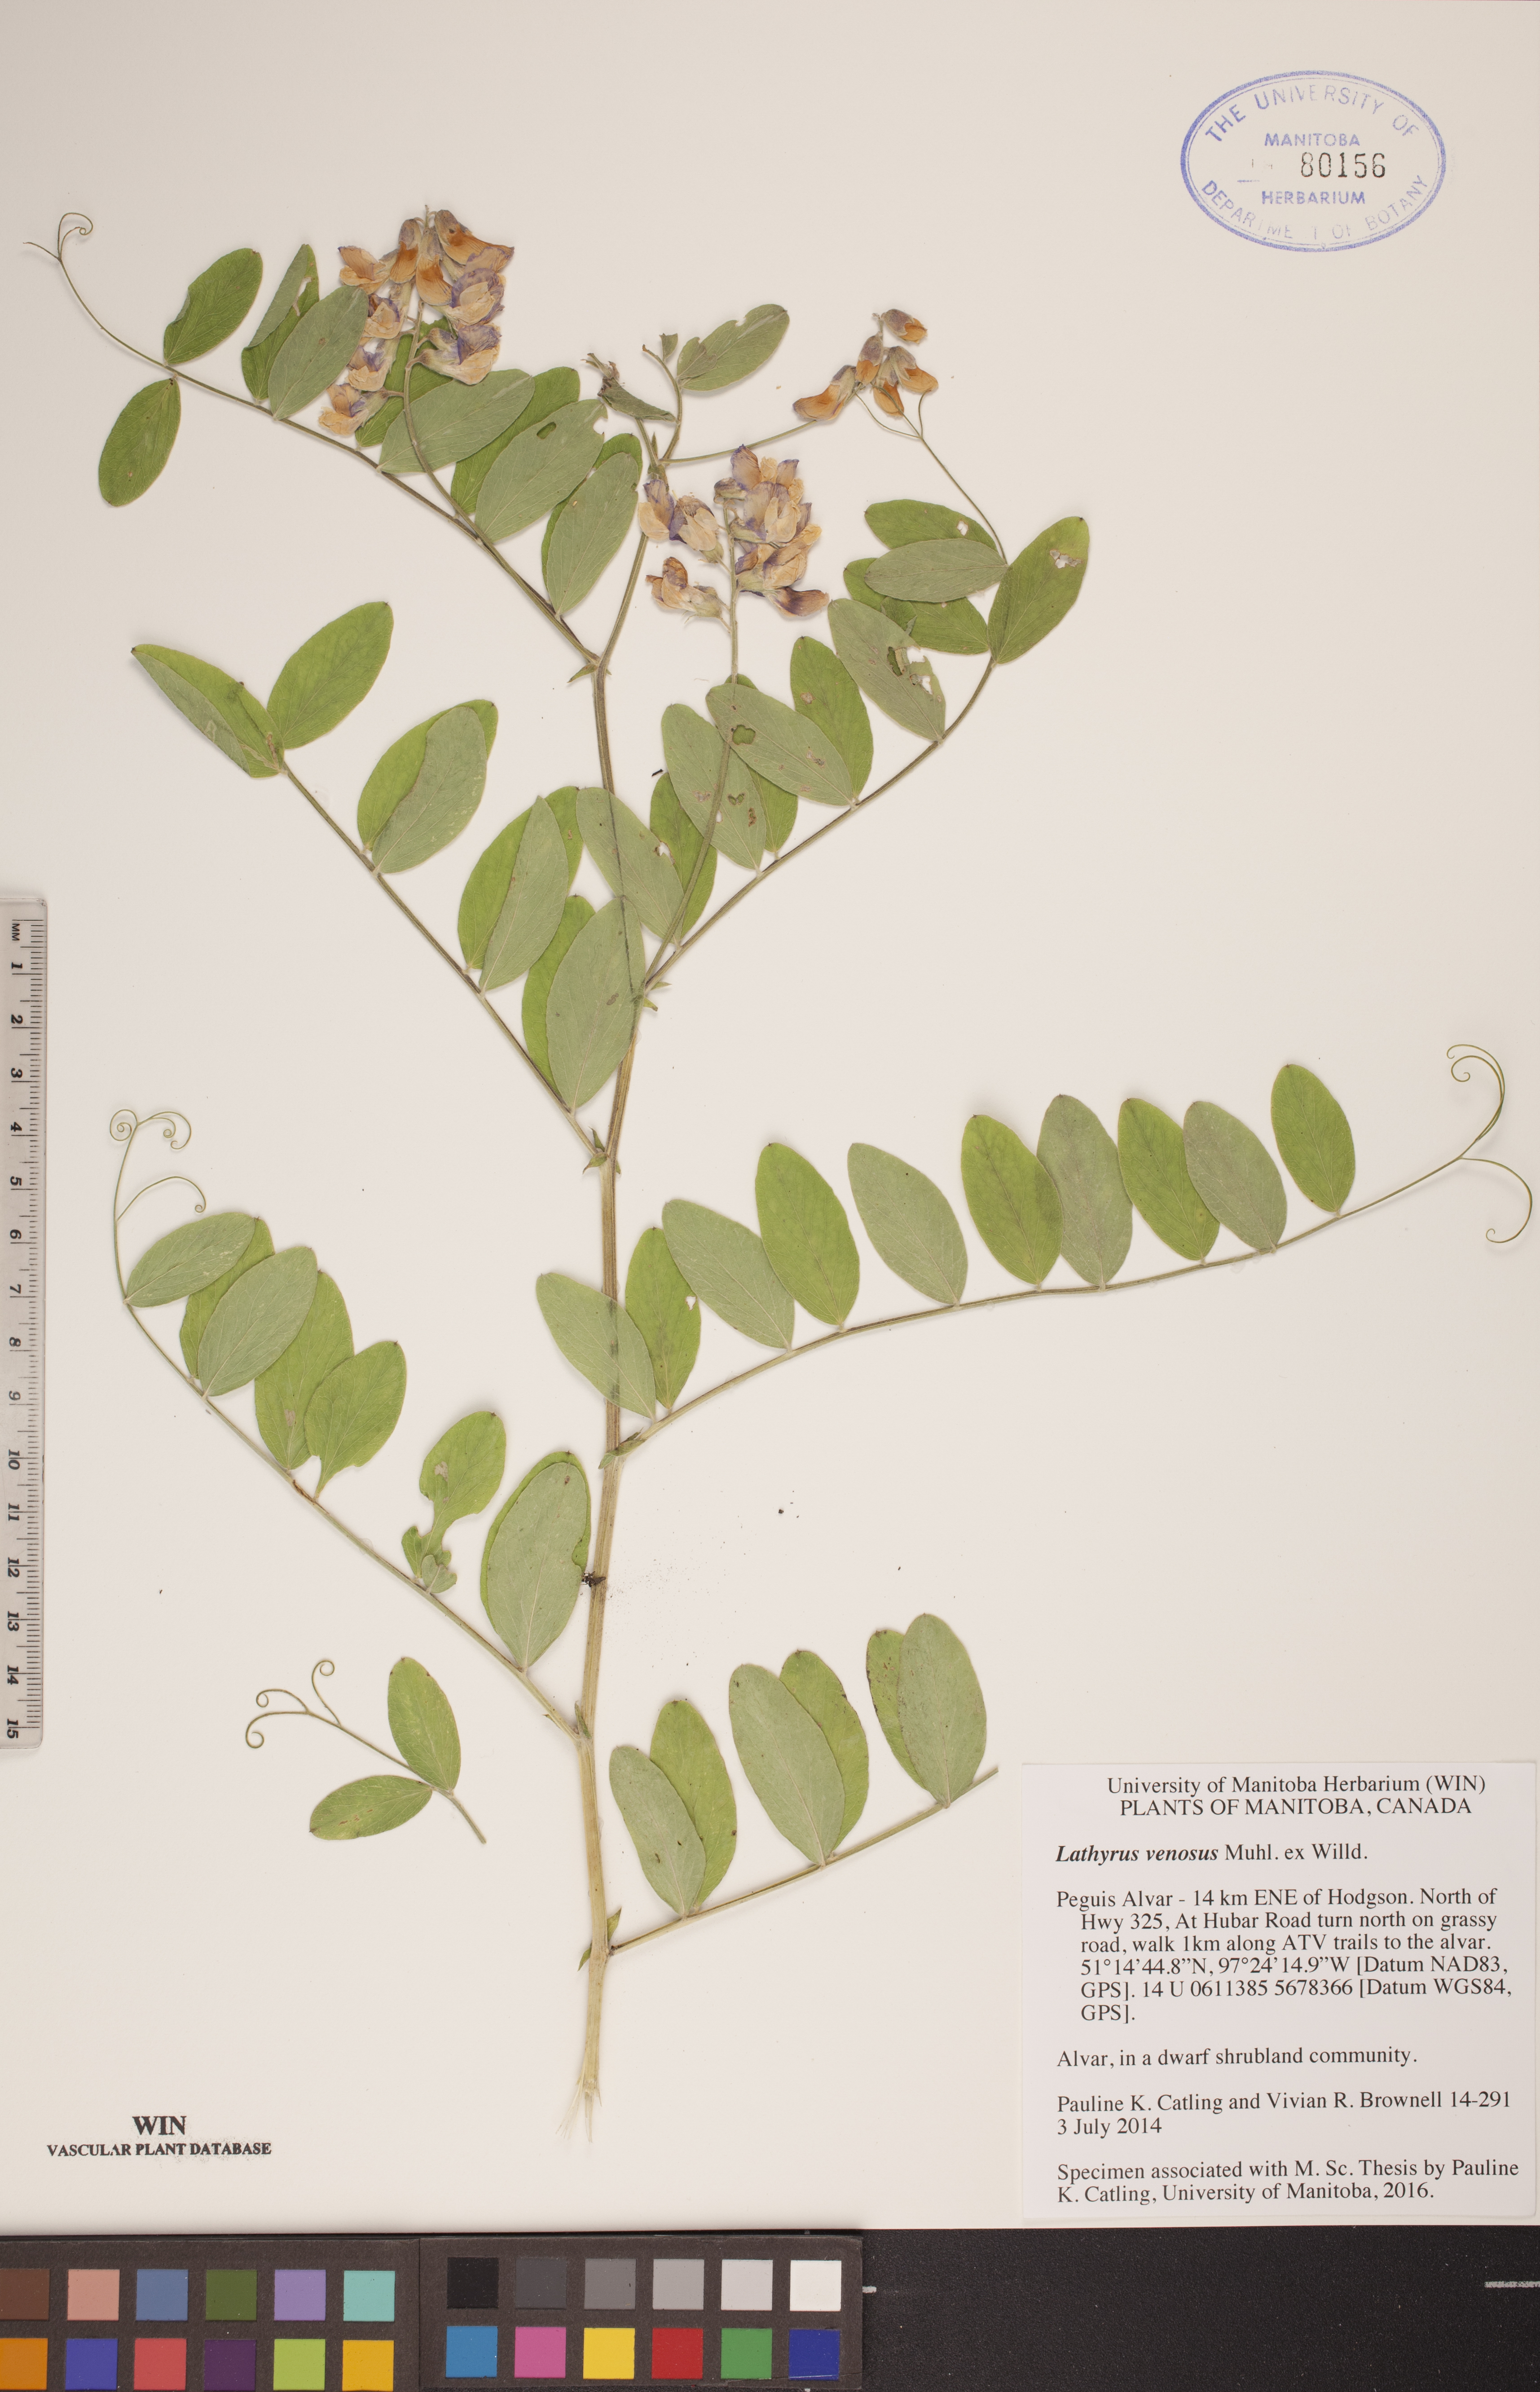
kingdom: Plantae
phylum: Tracheophyta
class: Magnoliopsida
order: Fabales
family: Fabaceae
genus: Lathyrus
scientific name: Lathyrus venosus
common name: Forest-pea
